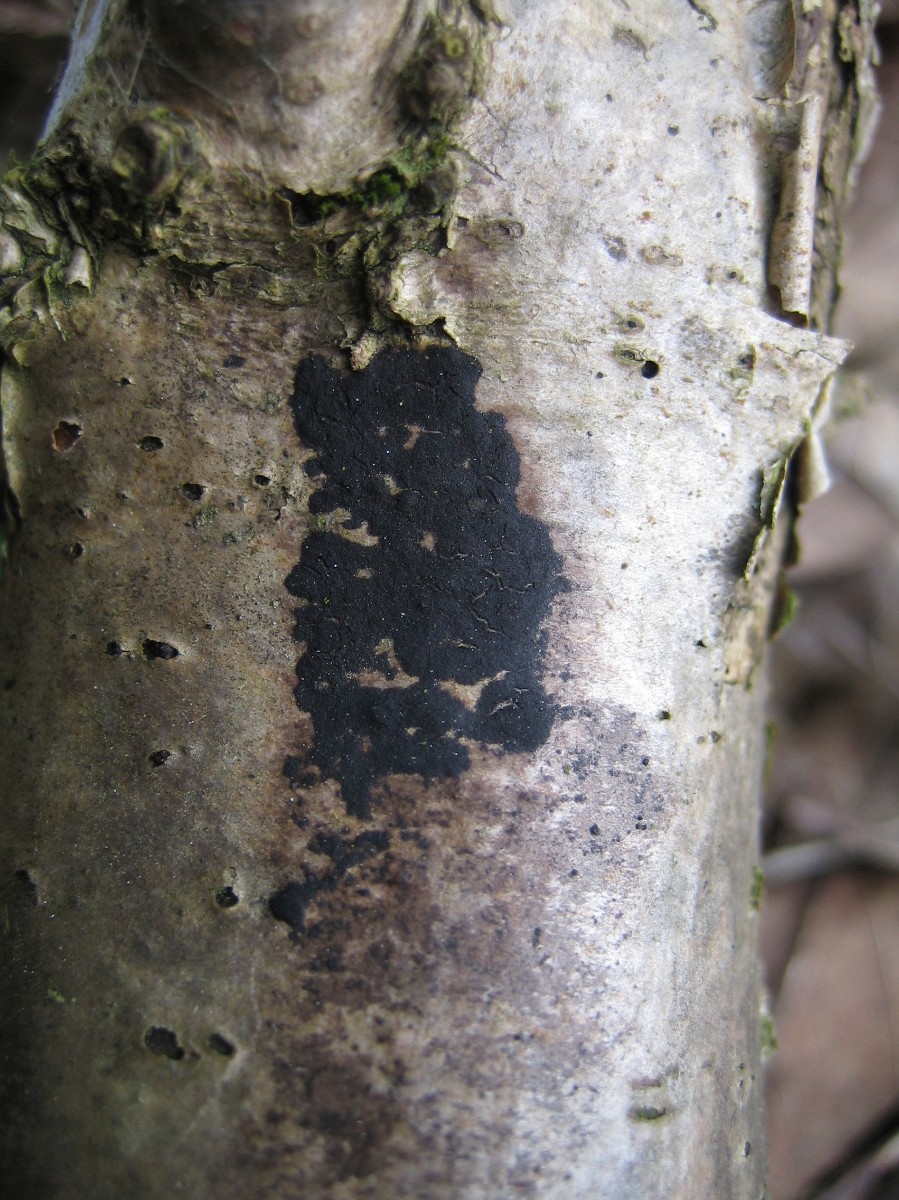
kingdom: Fungi
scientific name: Fungi
